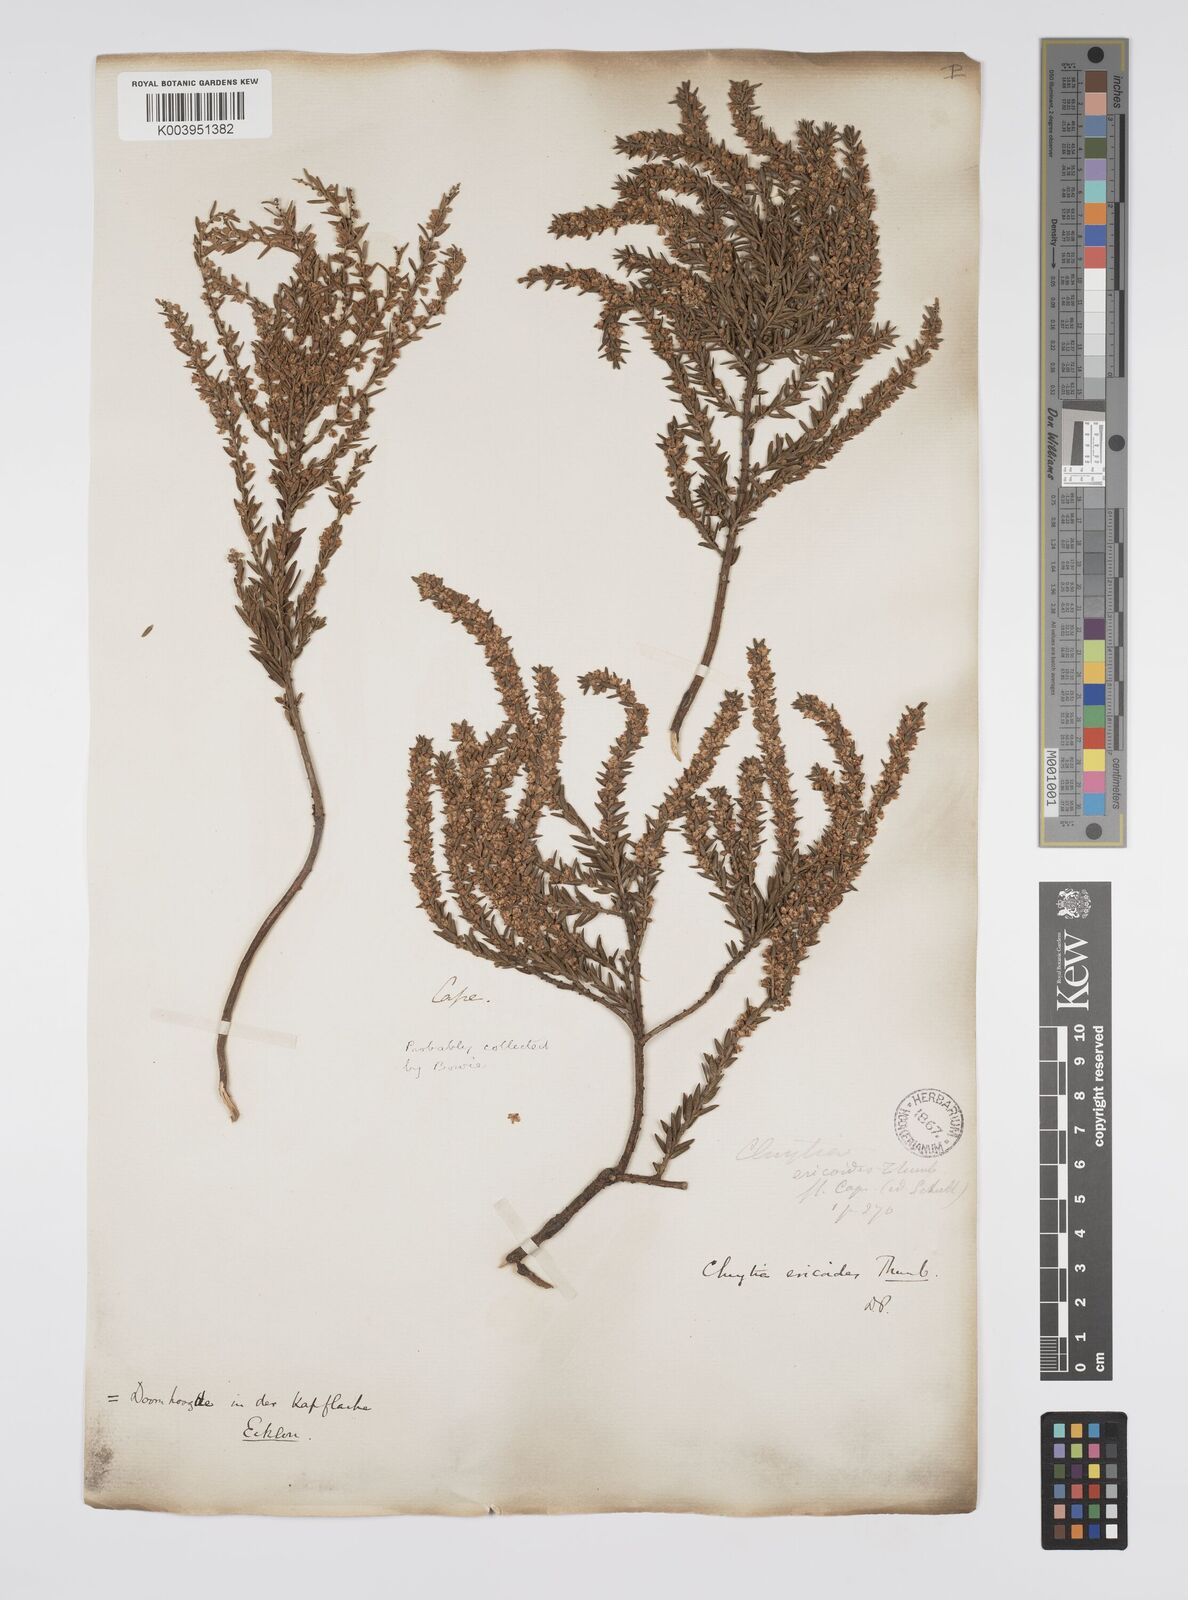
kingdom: Plantae
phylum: Tracheophyta
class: Magnoliopsida
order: Malpighiales
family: Peraceae
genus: Clutia
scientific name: Clutia
